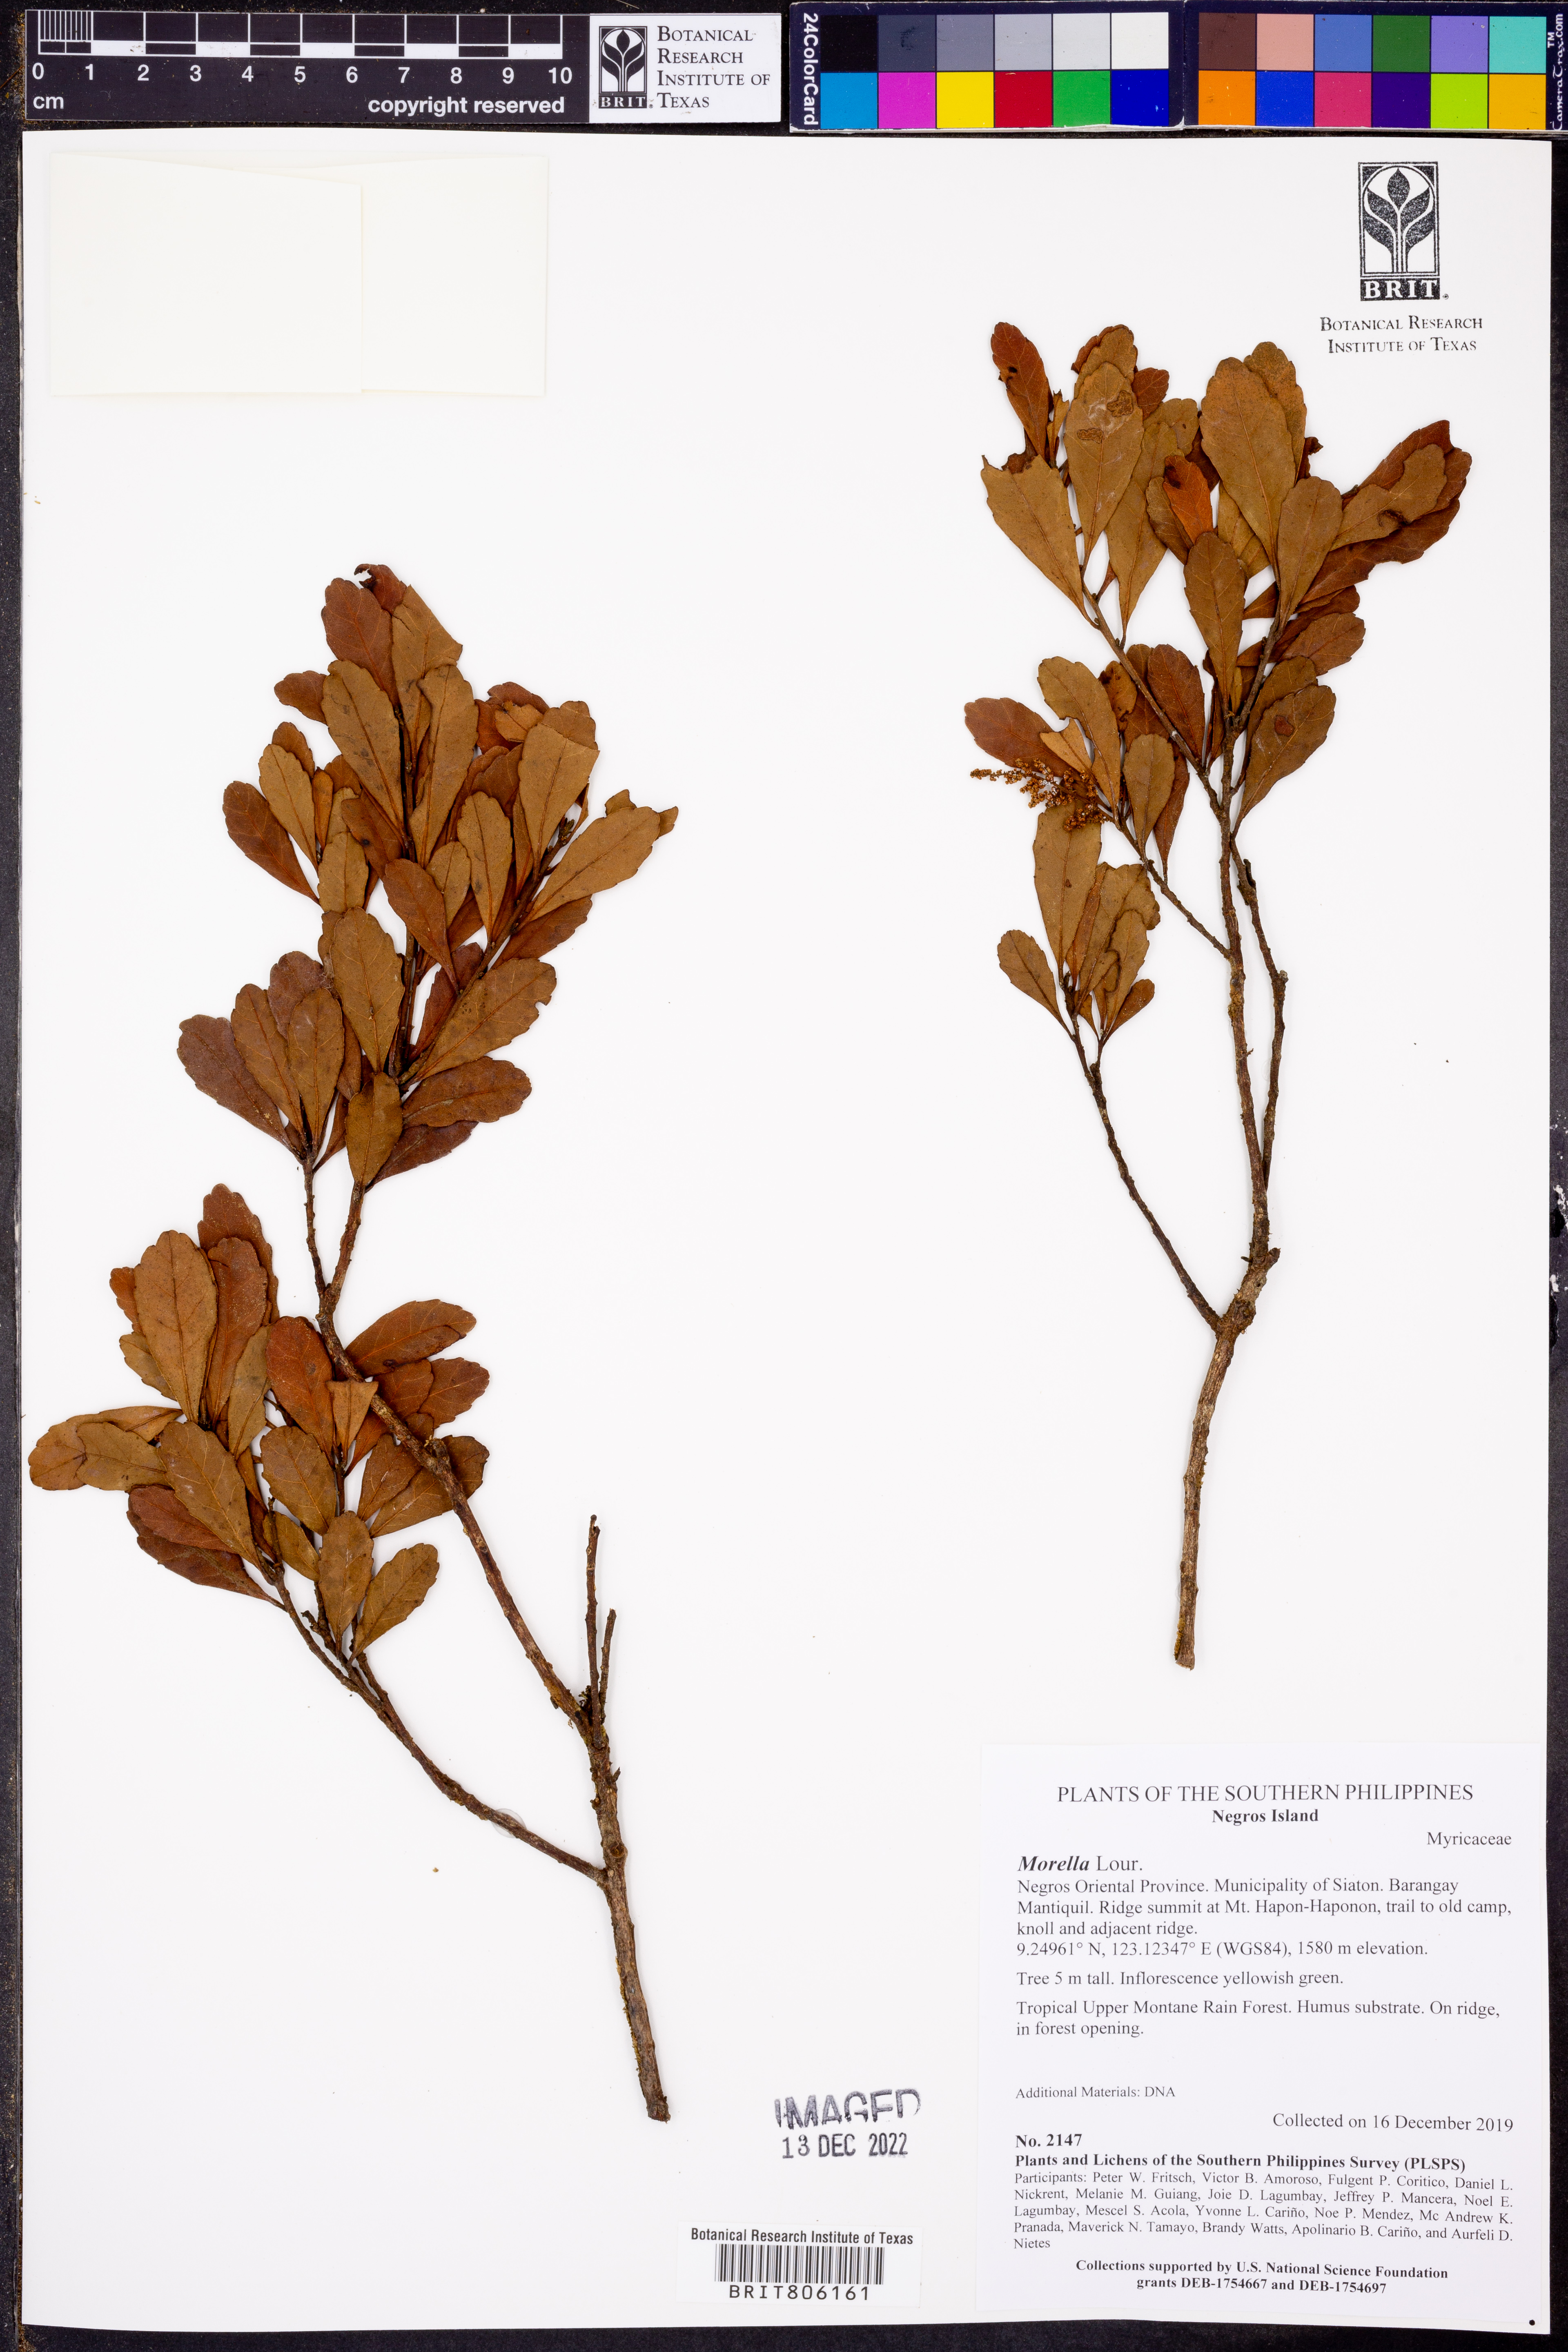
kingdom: Plantae
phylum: Tracheophyta
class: Magnoliopsida
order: Fagales
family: Myricaceae
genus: Morella
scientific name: Morella
